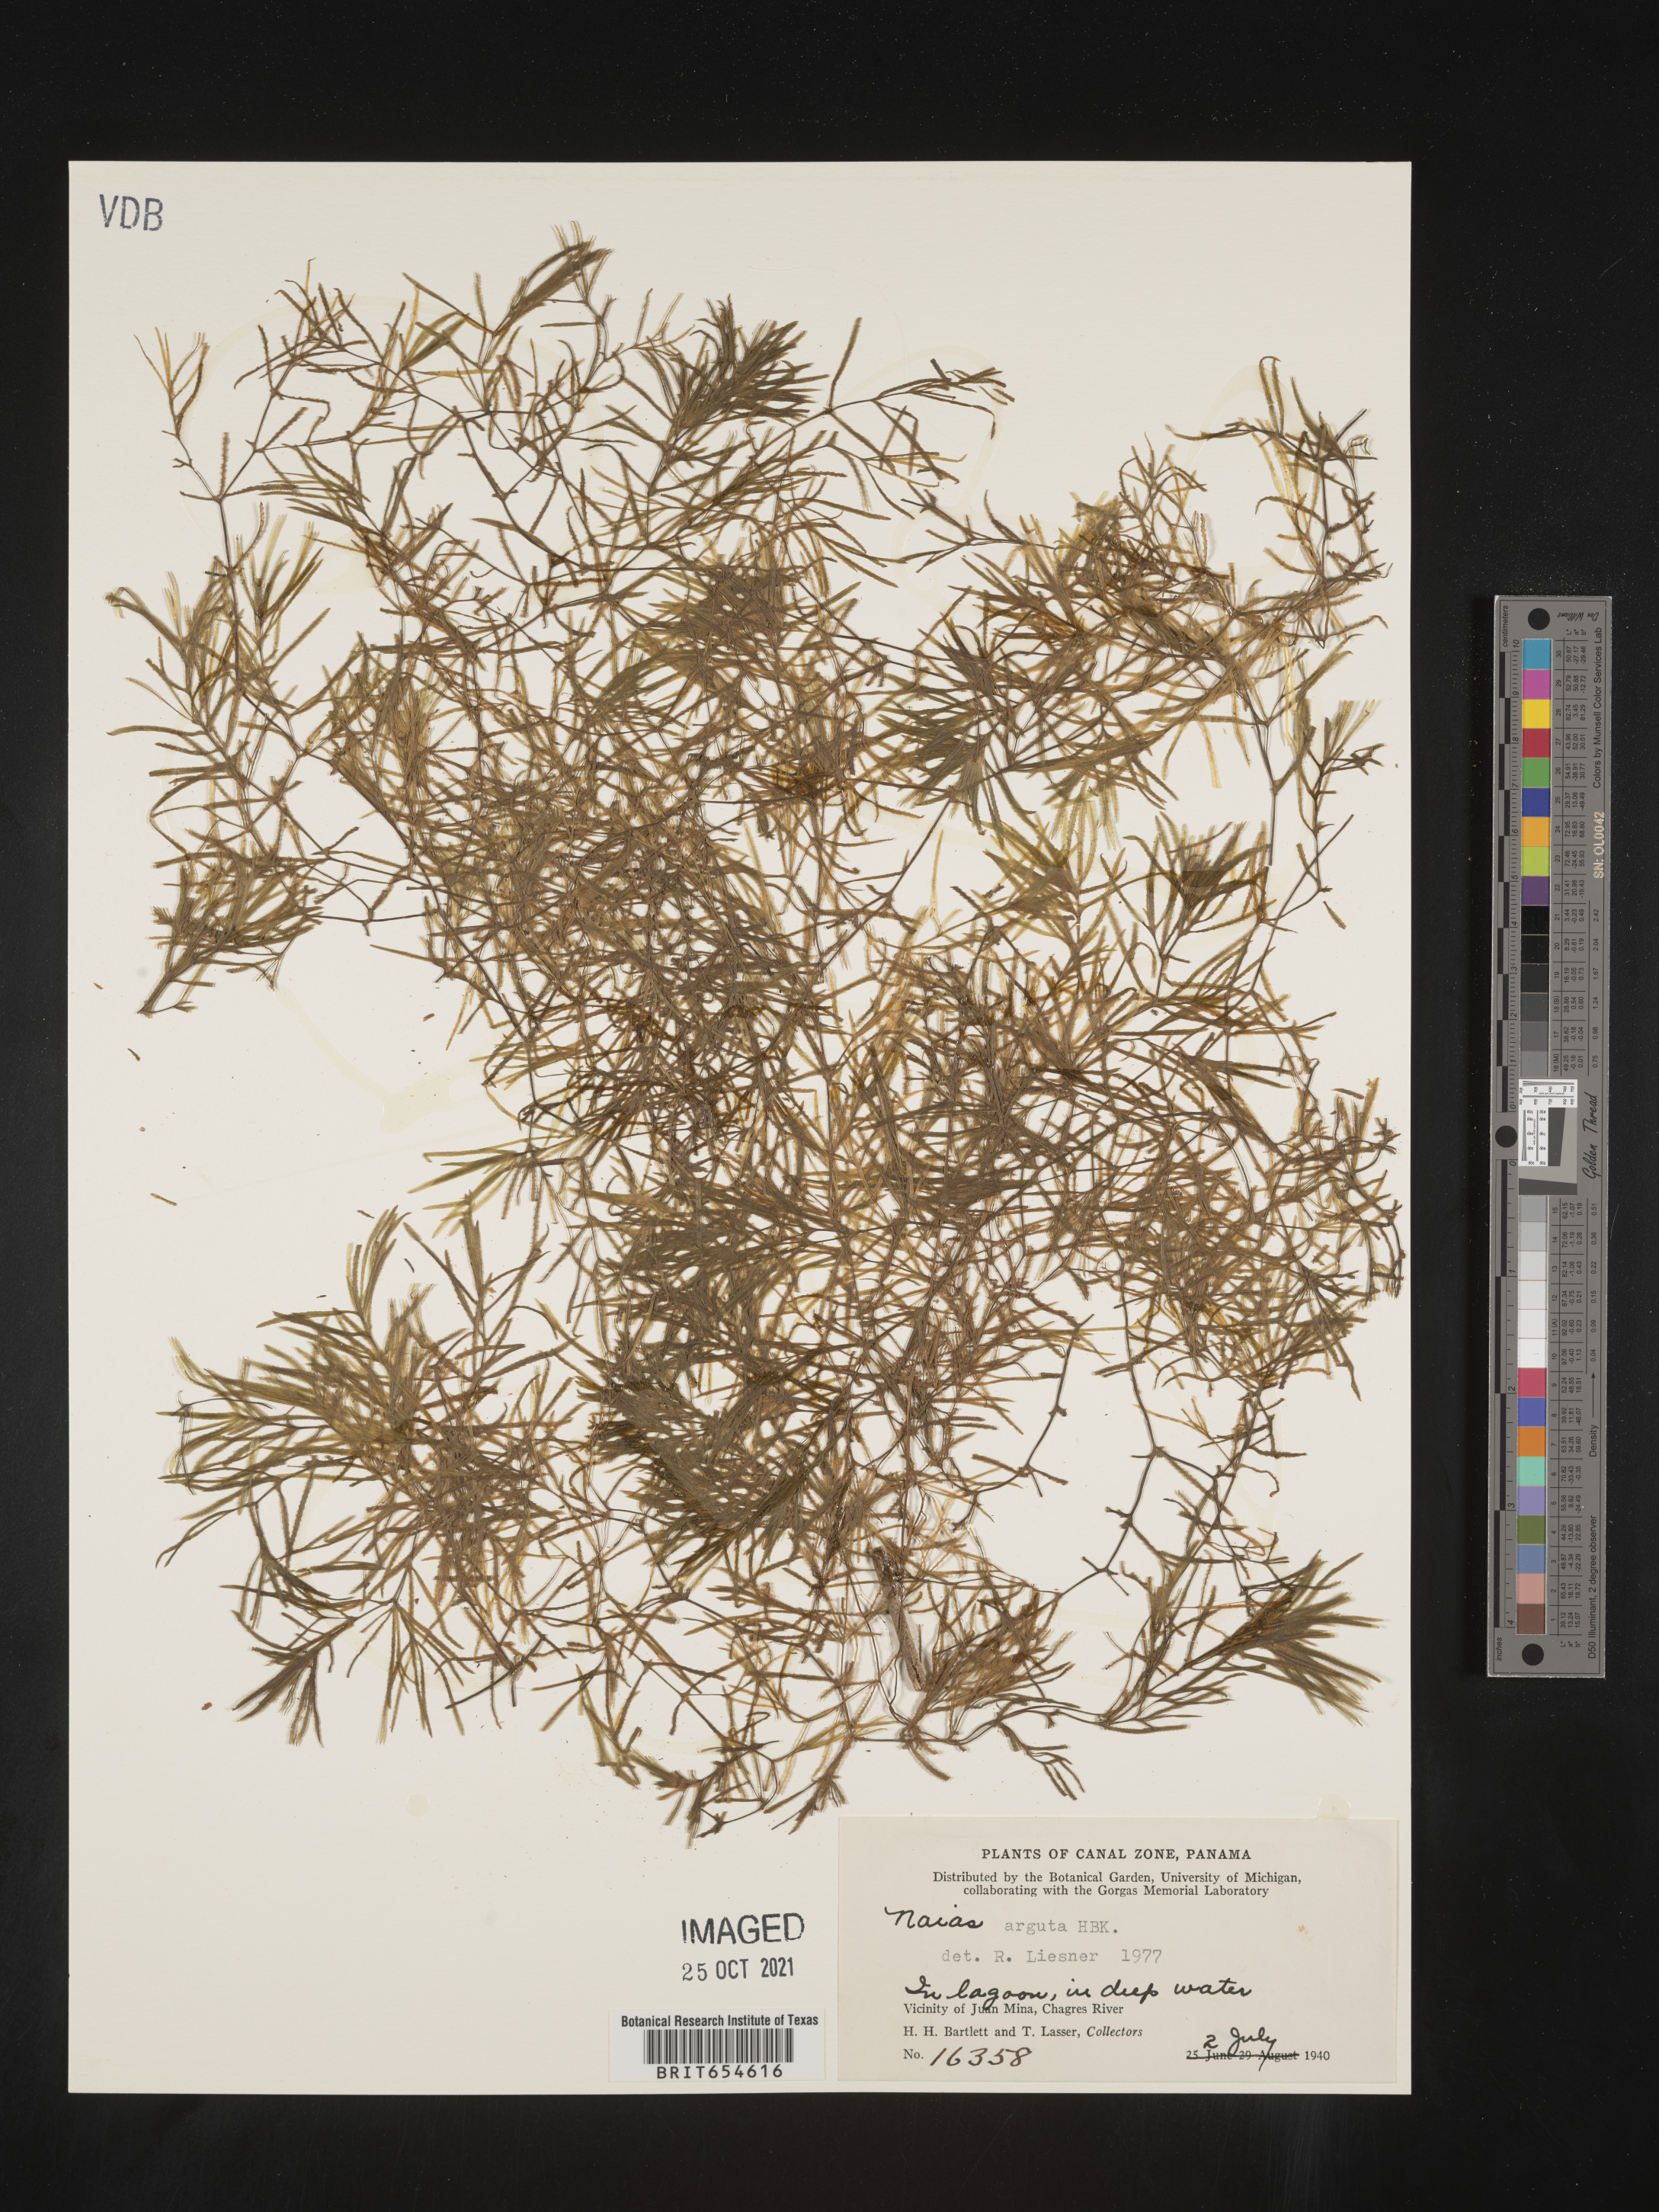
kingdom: Plantae
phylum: Tracheophyta
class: Liliopsida
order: Alismatales
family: Hydrocharitaceae
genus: Najas
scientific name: Najas
